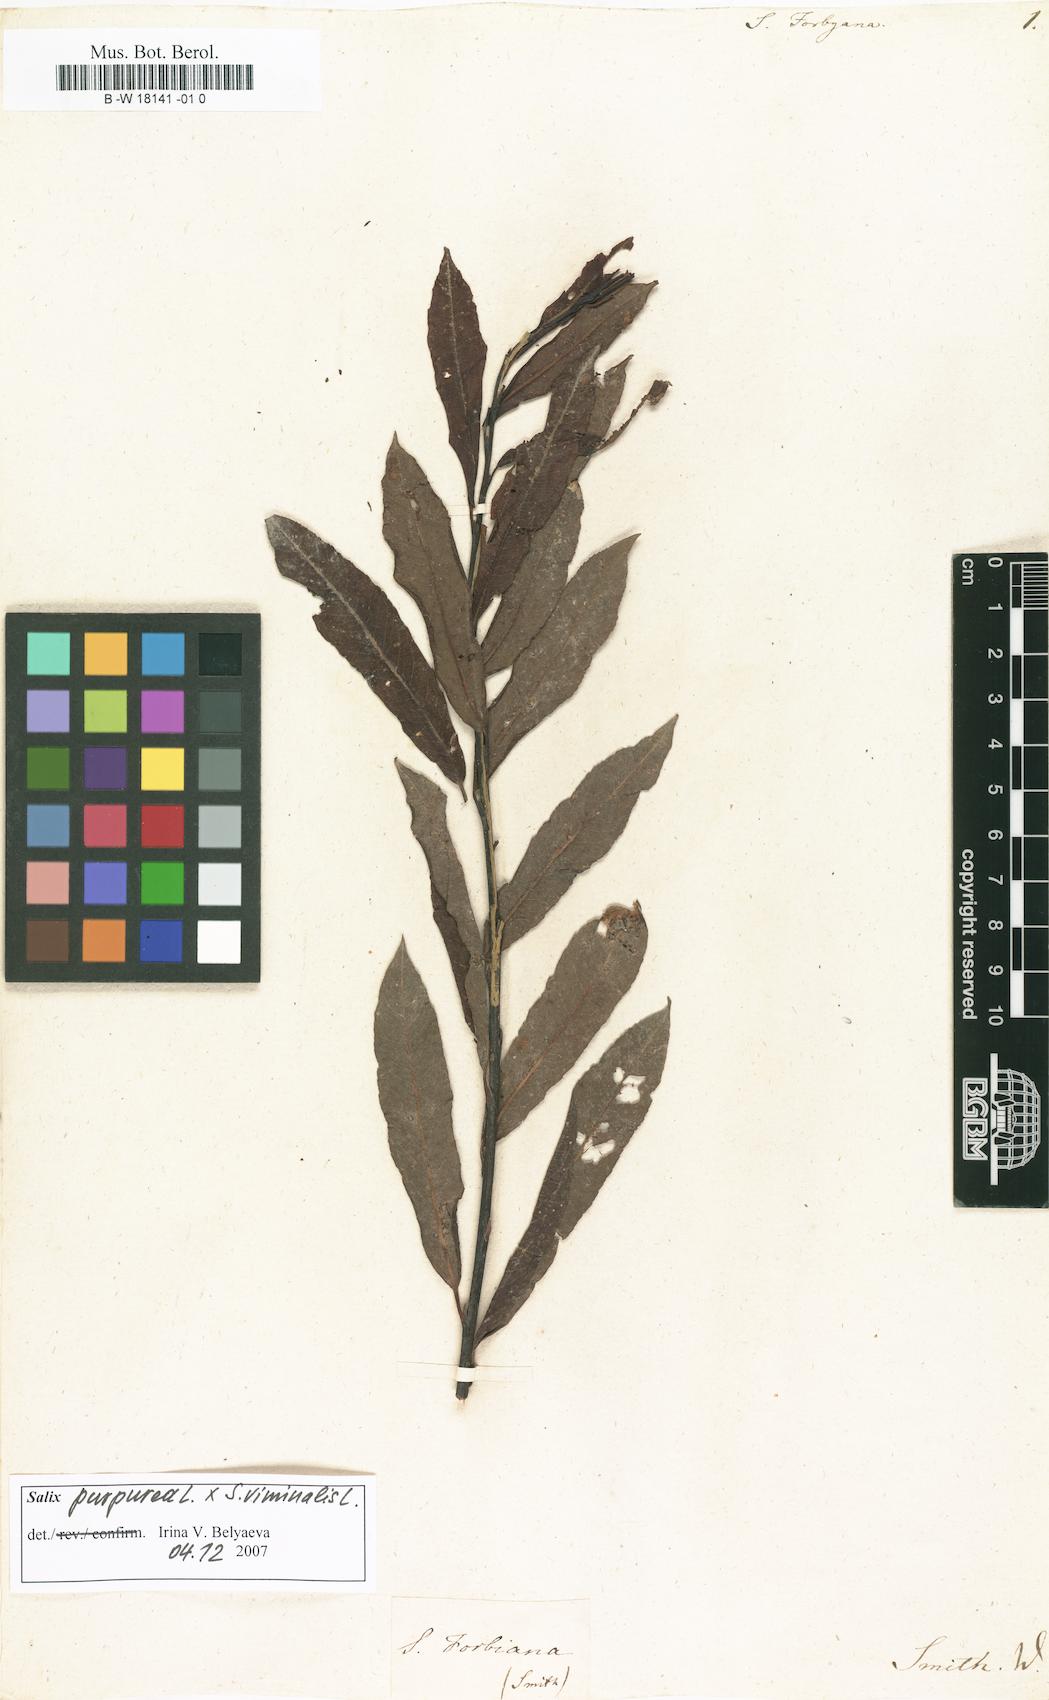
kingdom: Plantae
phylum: Tracheophyta
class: Magnoliopsida
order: Malpighiales
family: Salicaceae
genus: Salix
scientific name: Salix rubra
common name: Green-leaf willow
